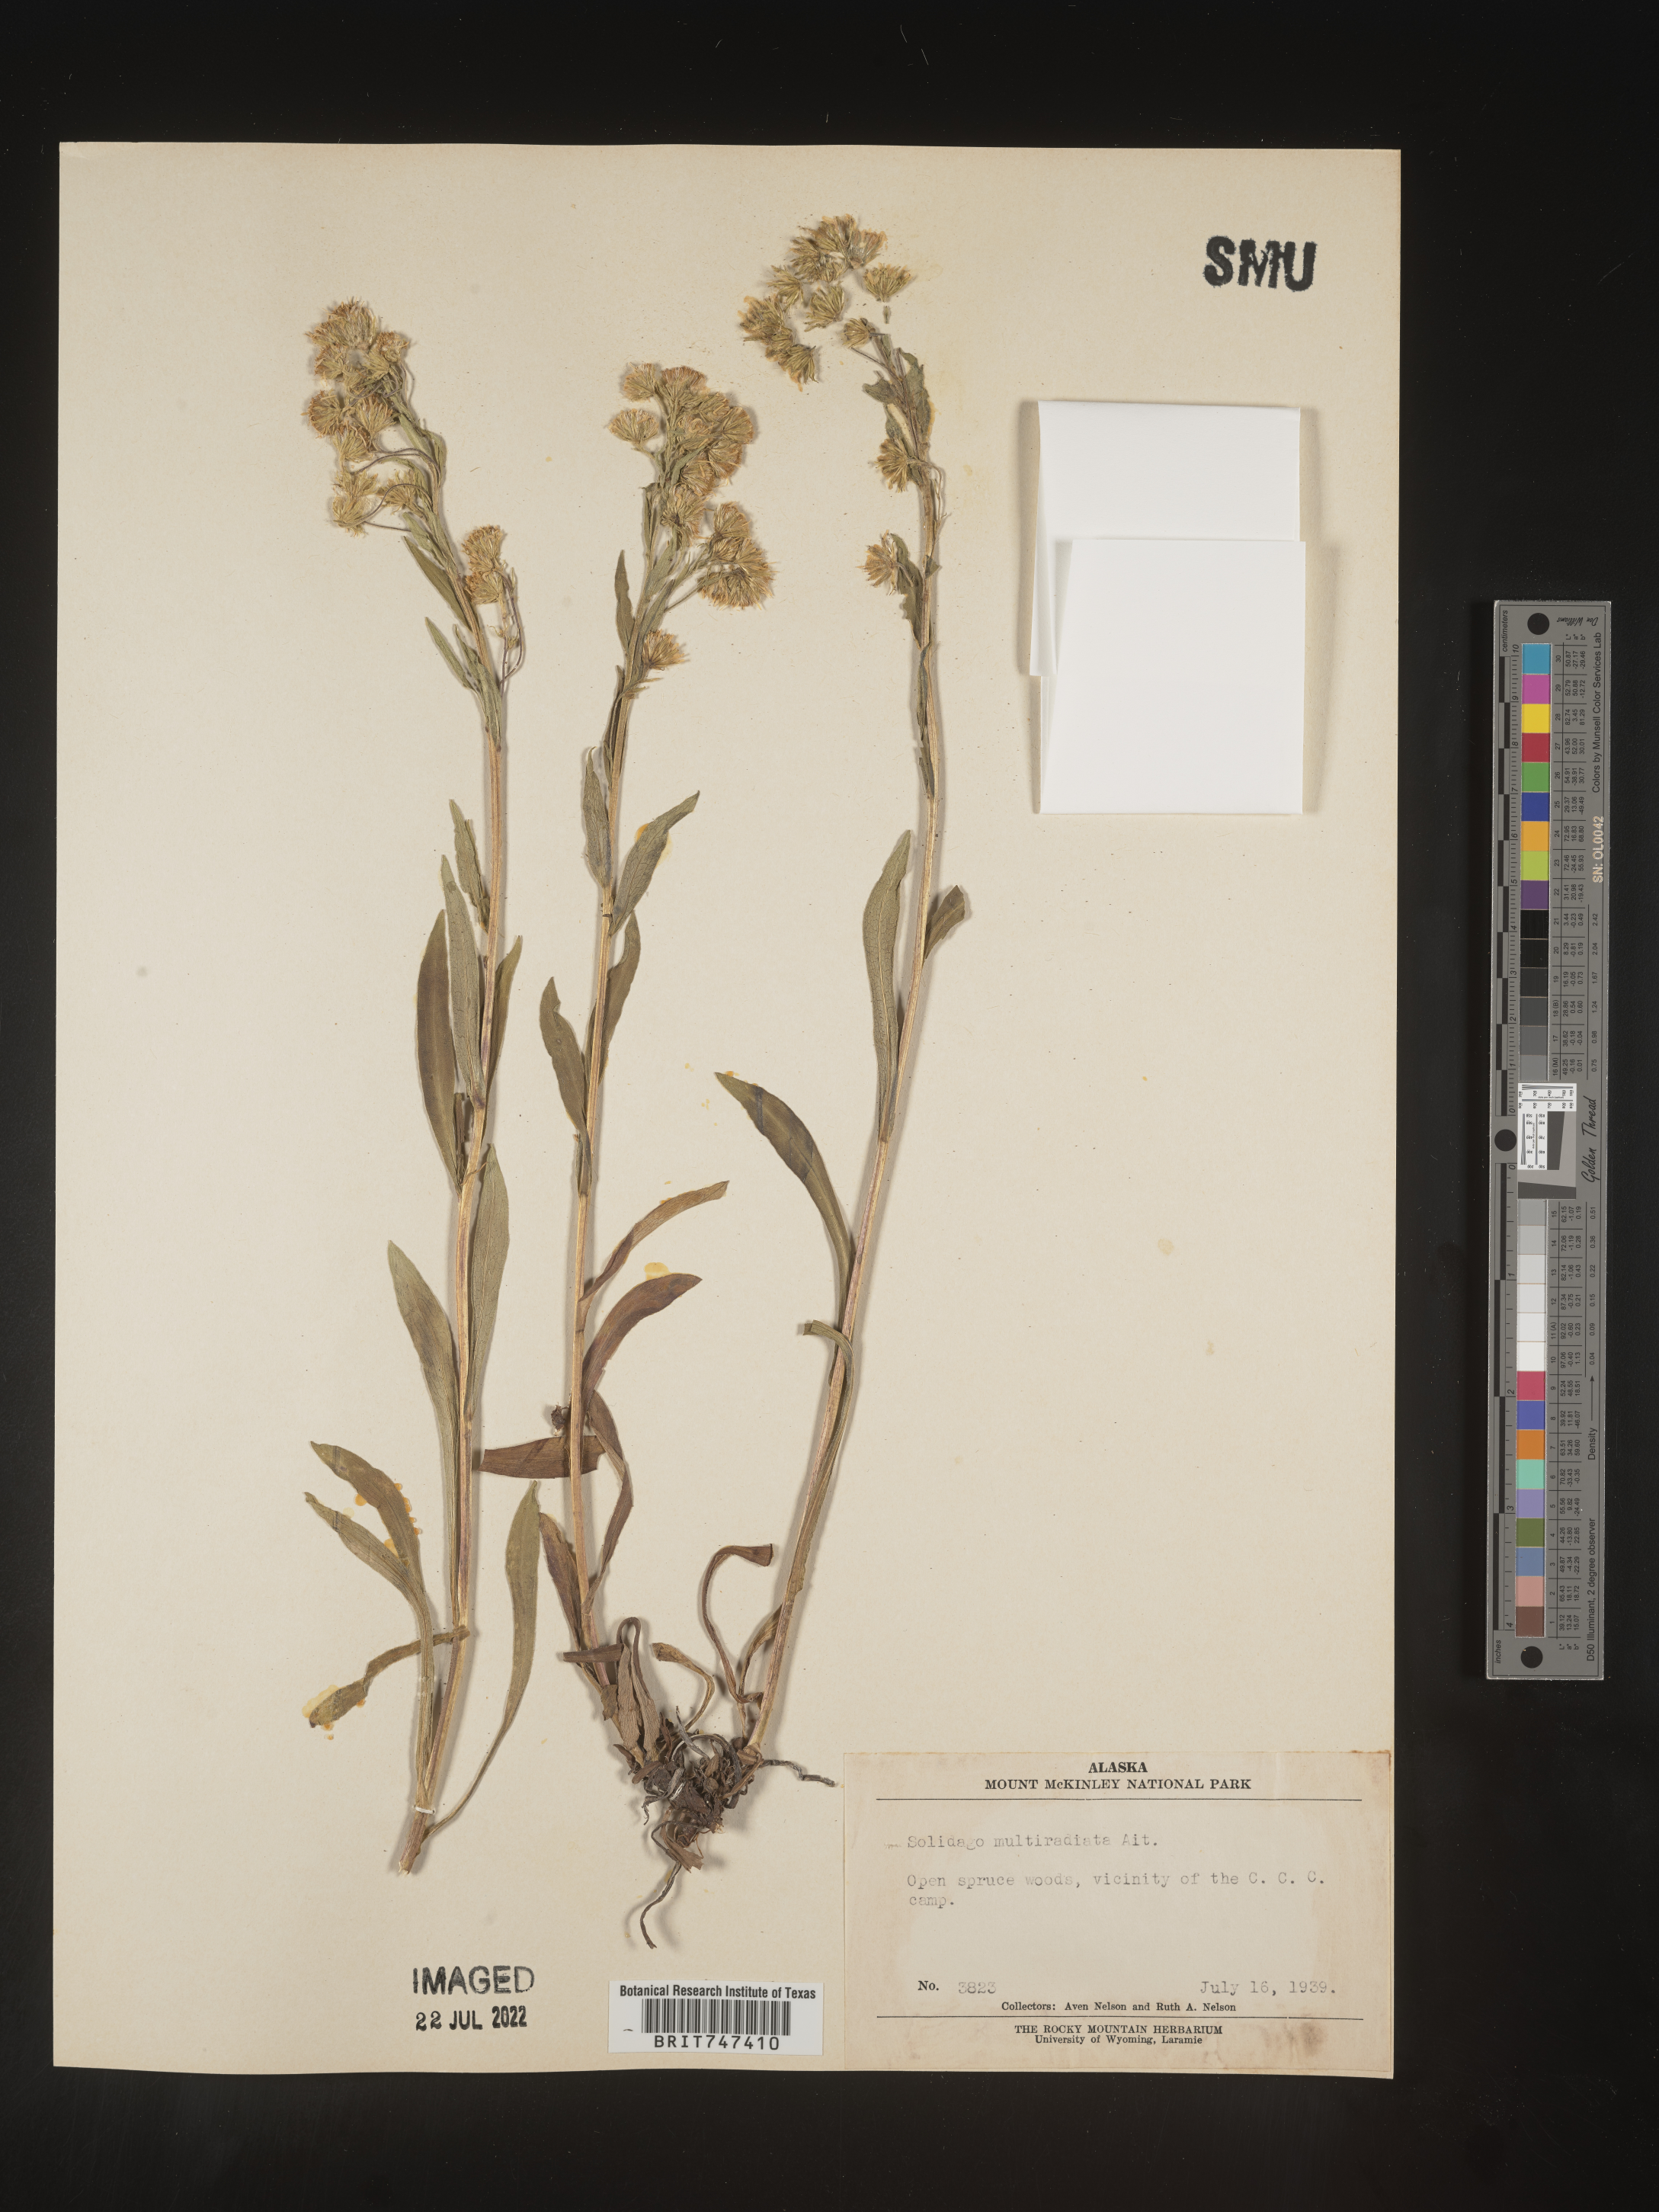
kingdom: Plantae
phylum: Tracheophyta
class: Magnoliopsida
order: Asterales
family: Asteraceae
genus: Solidago
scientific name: Solidago multiradiata
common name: Northern goldenrod
